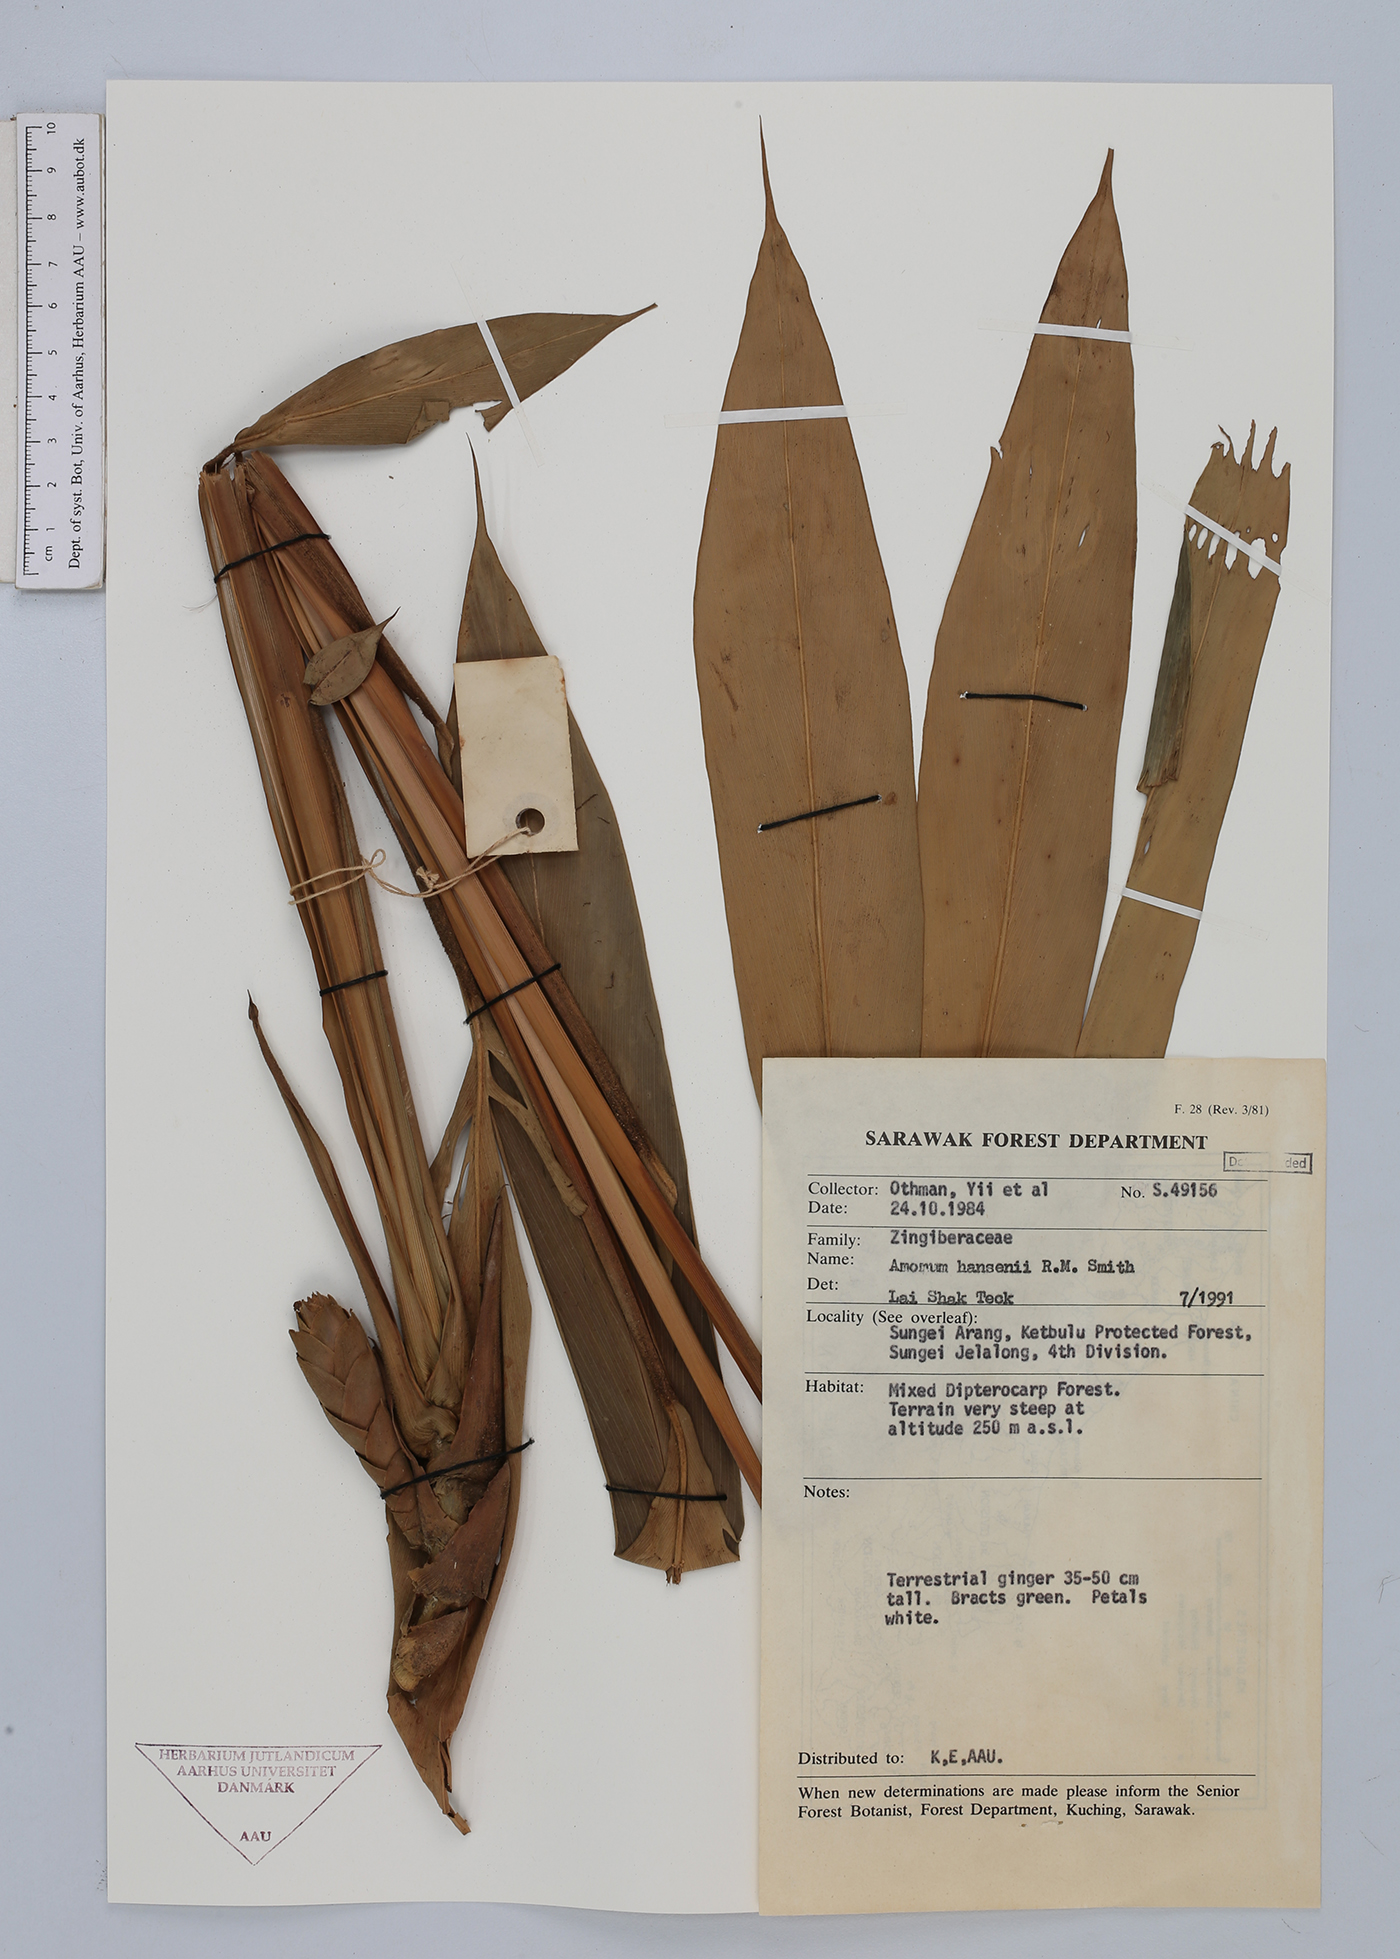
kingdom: Plantae
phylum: Tracheophyta
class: Liliopsida
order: Zingiberales
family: Zingiberaceae
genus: Epiamomum
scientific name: Epiamomum hansenii
